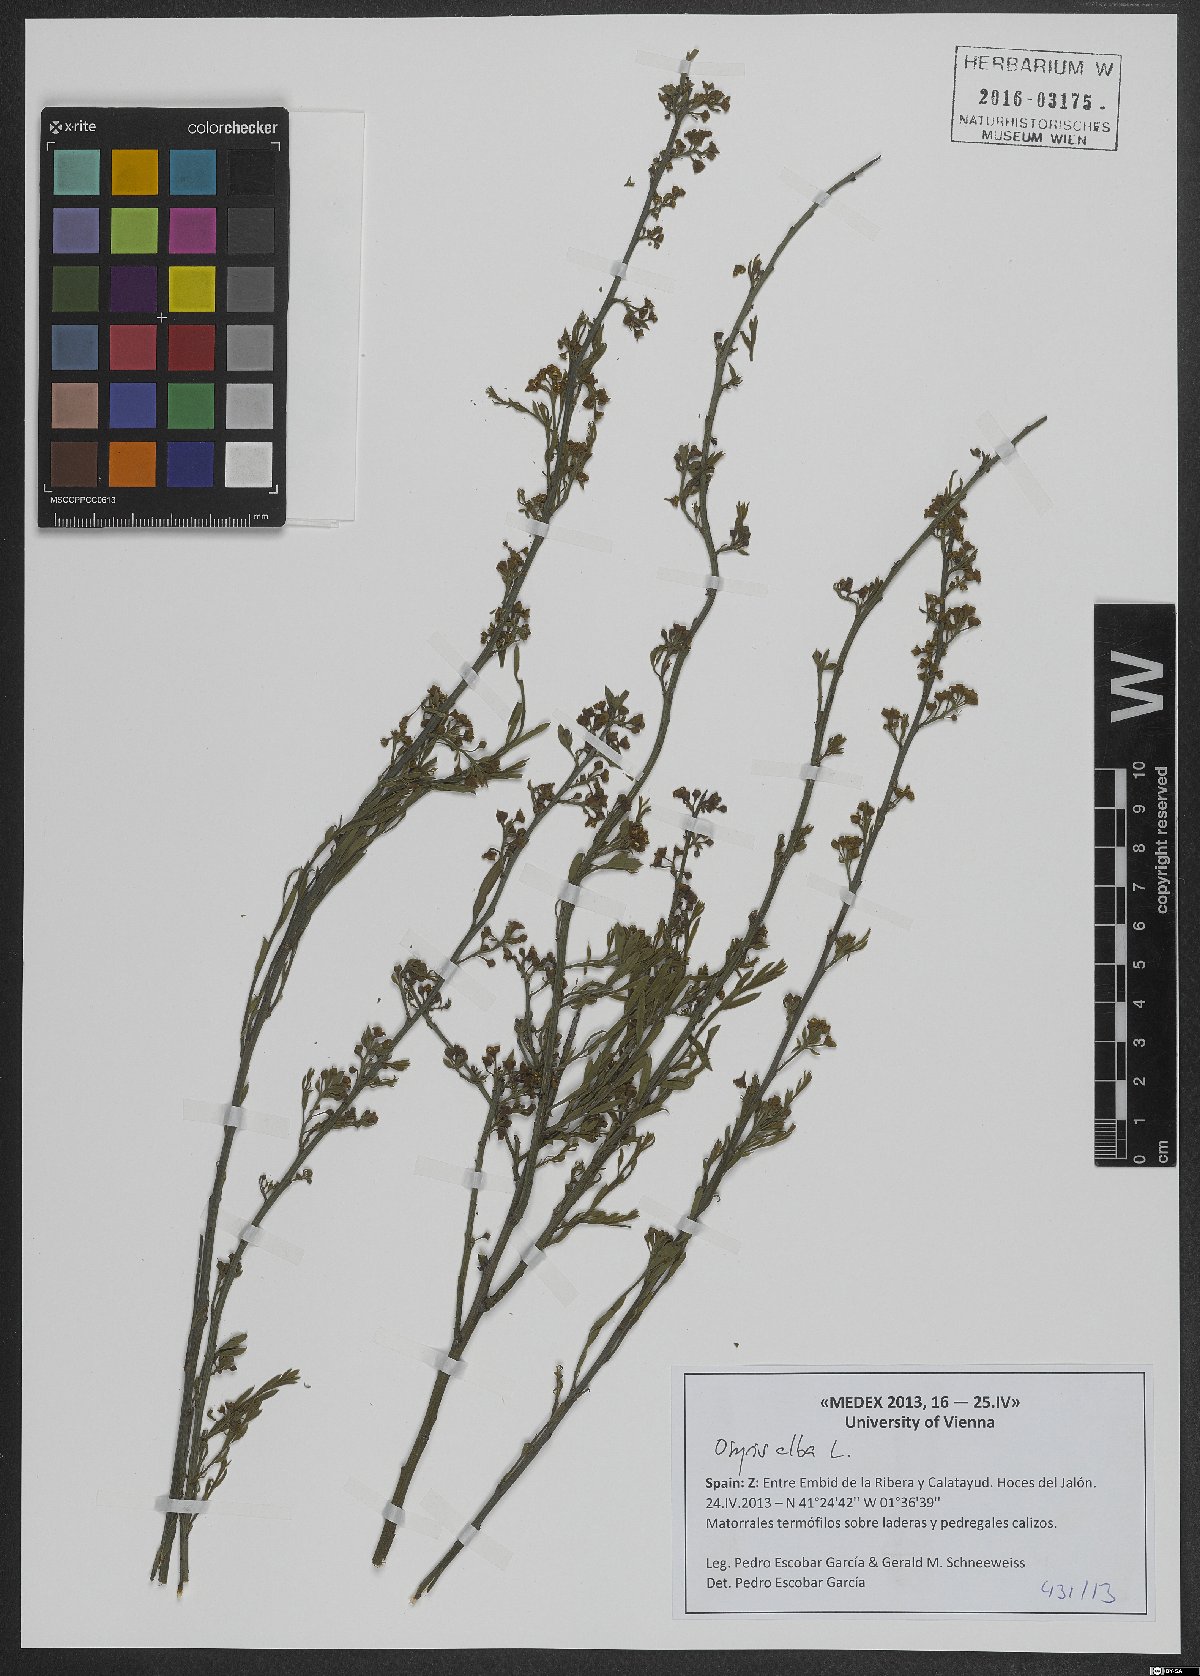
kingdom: Plantae
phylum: Tracheophyta
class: Magnoliopsida
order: Santalales
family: Santalaceae
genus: Osyris
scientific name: Osyris alba
